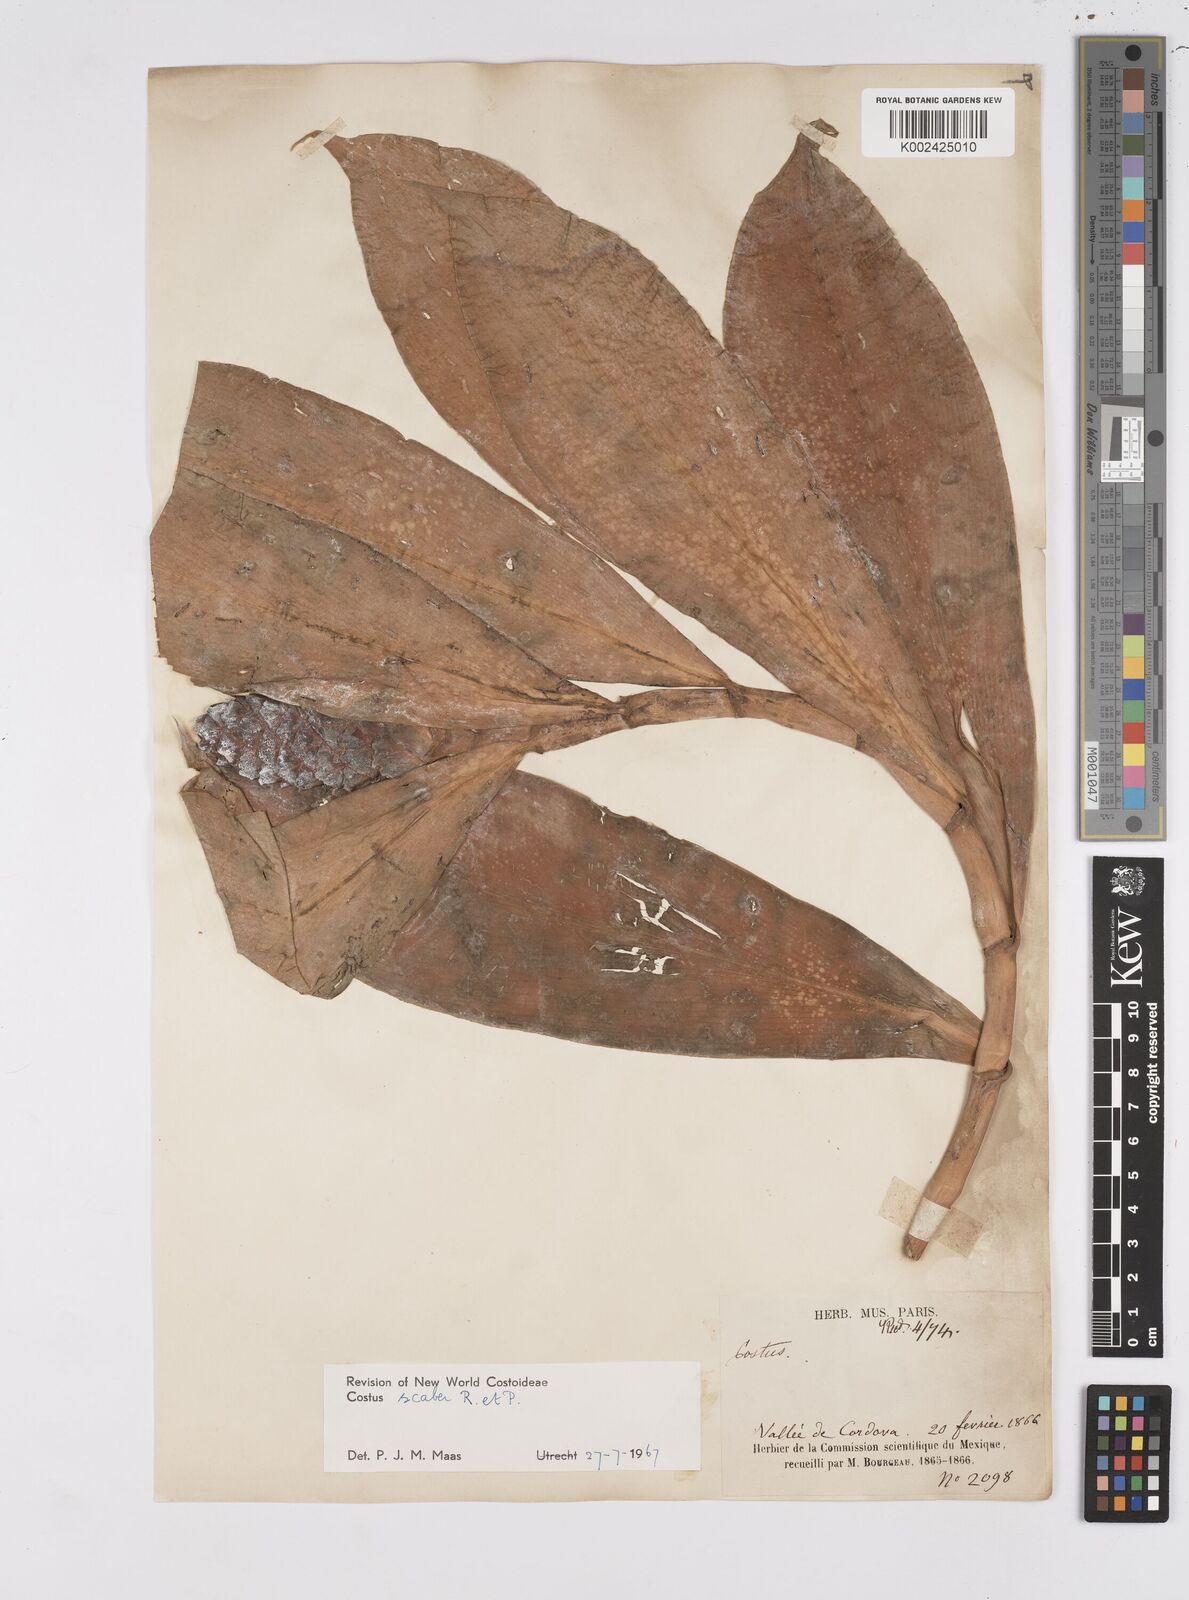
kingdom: Plantae
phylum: Tracheophyta
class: Liliopsida
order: Zingiberales
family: Costaceae
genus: Costus
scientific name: Costus scaber
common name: Spiral head ginger
